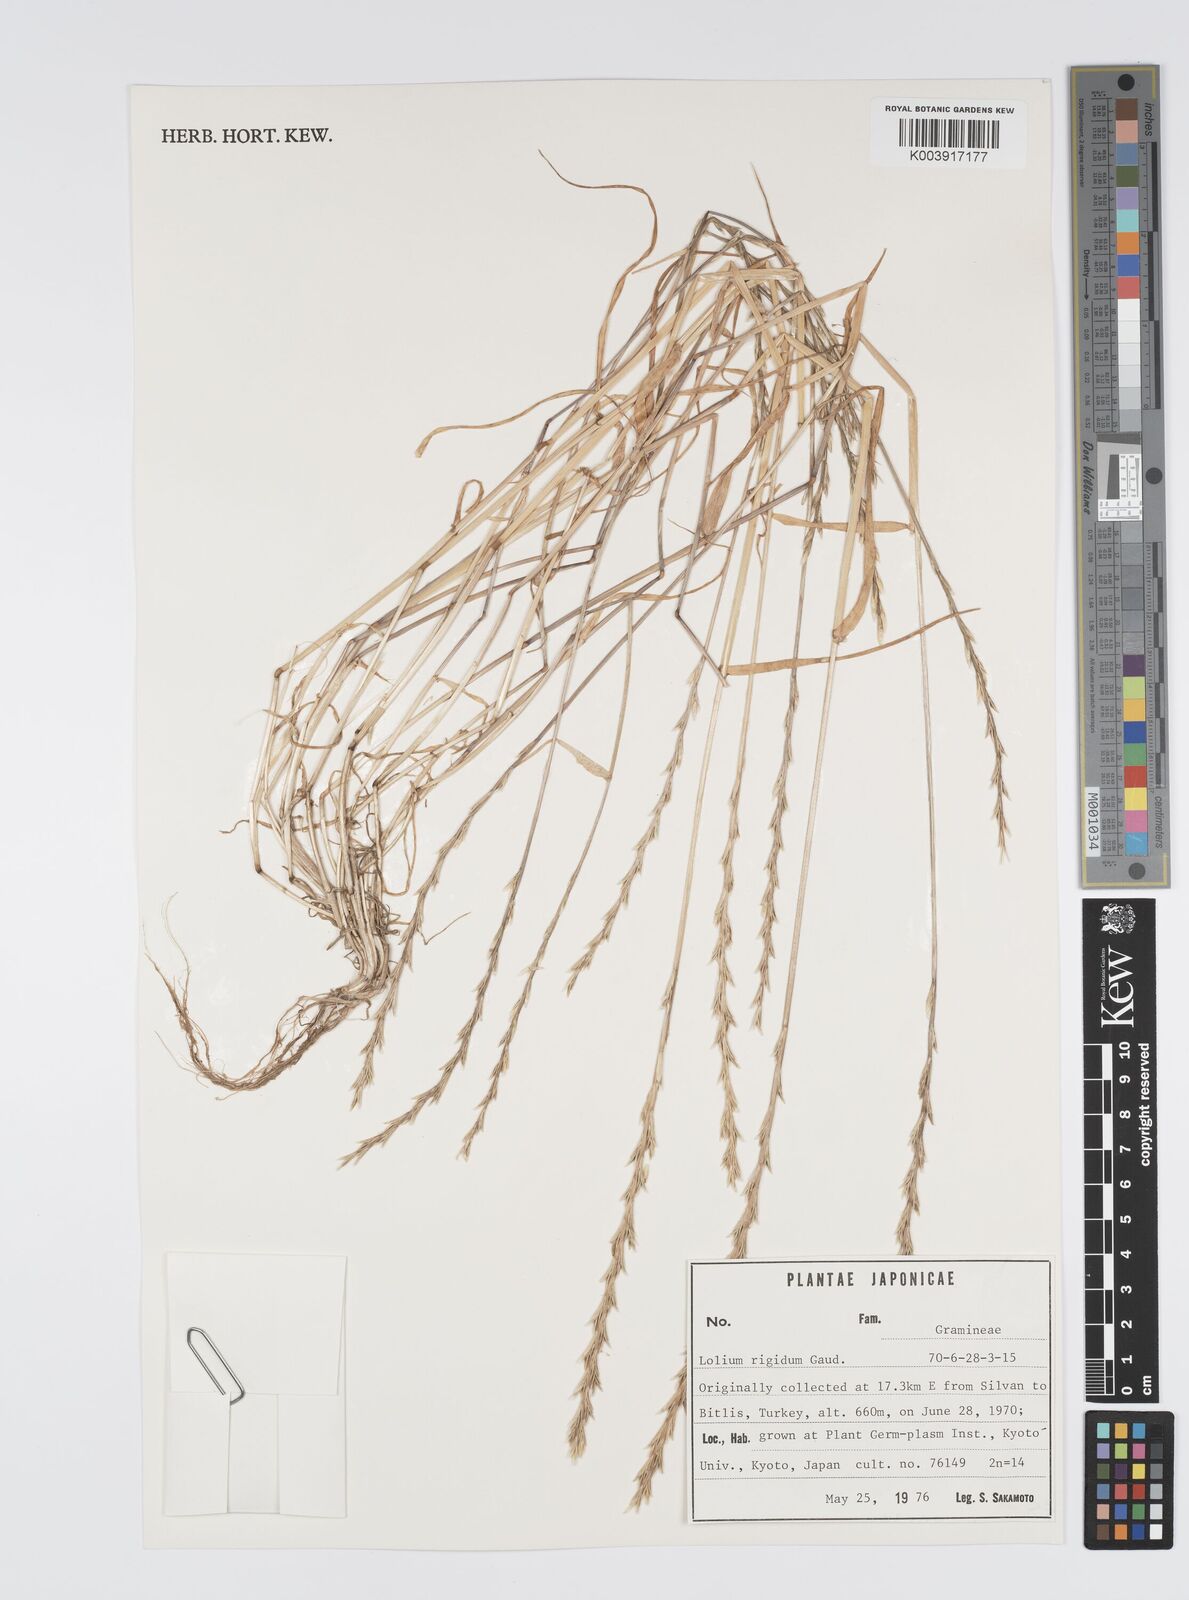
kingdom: Plantae
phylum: Tracheophyta
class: Liliopsida
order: Poales
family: Poaceae
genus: Lolium
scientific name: Lolium rigidum
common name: Wimmera ryegrass
